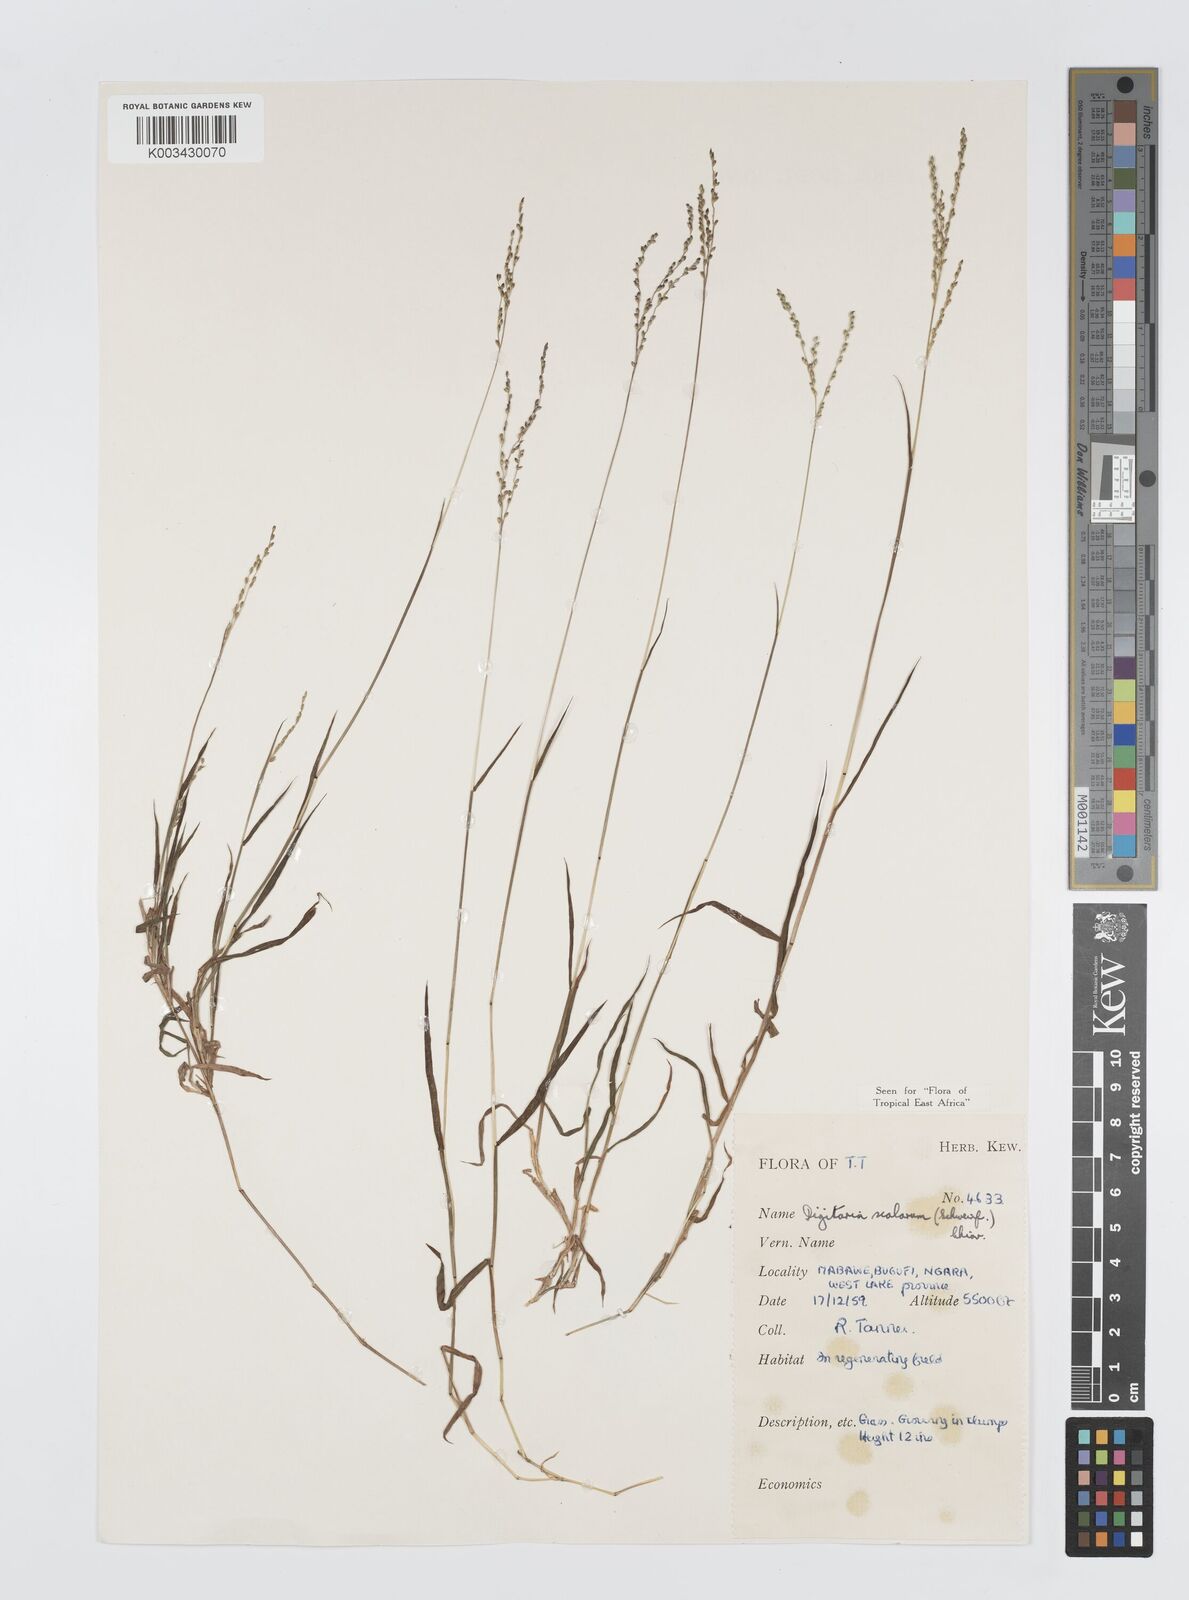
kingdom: Plantae
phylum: Tracheophyta
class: Liliopsida
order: Poales
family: Poaceae
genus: Digitaria
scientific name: Digitaria abyssinica
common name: African couchgrass
